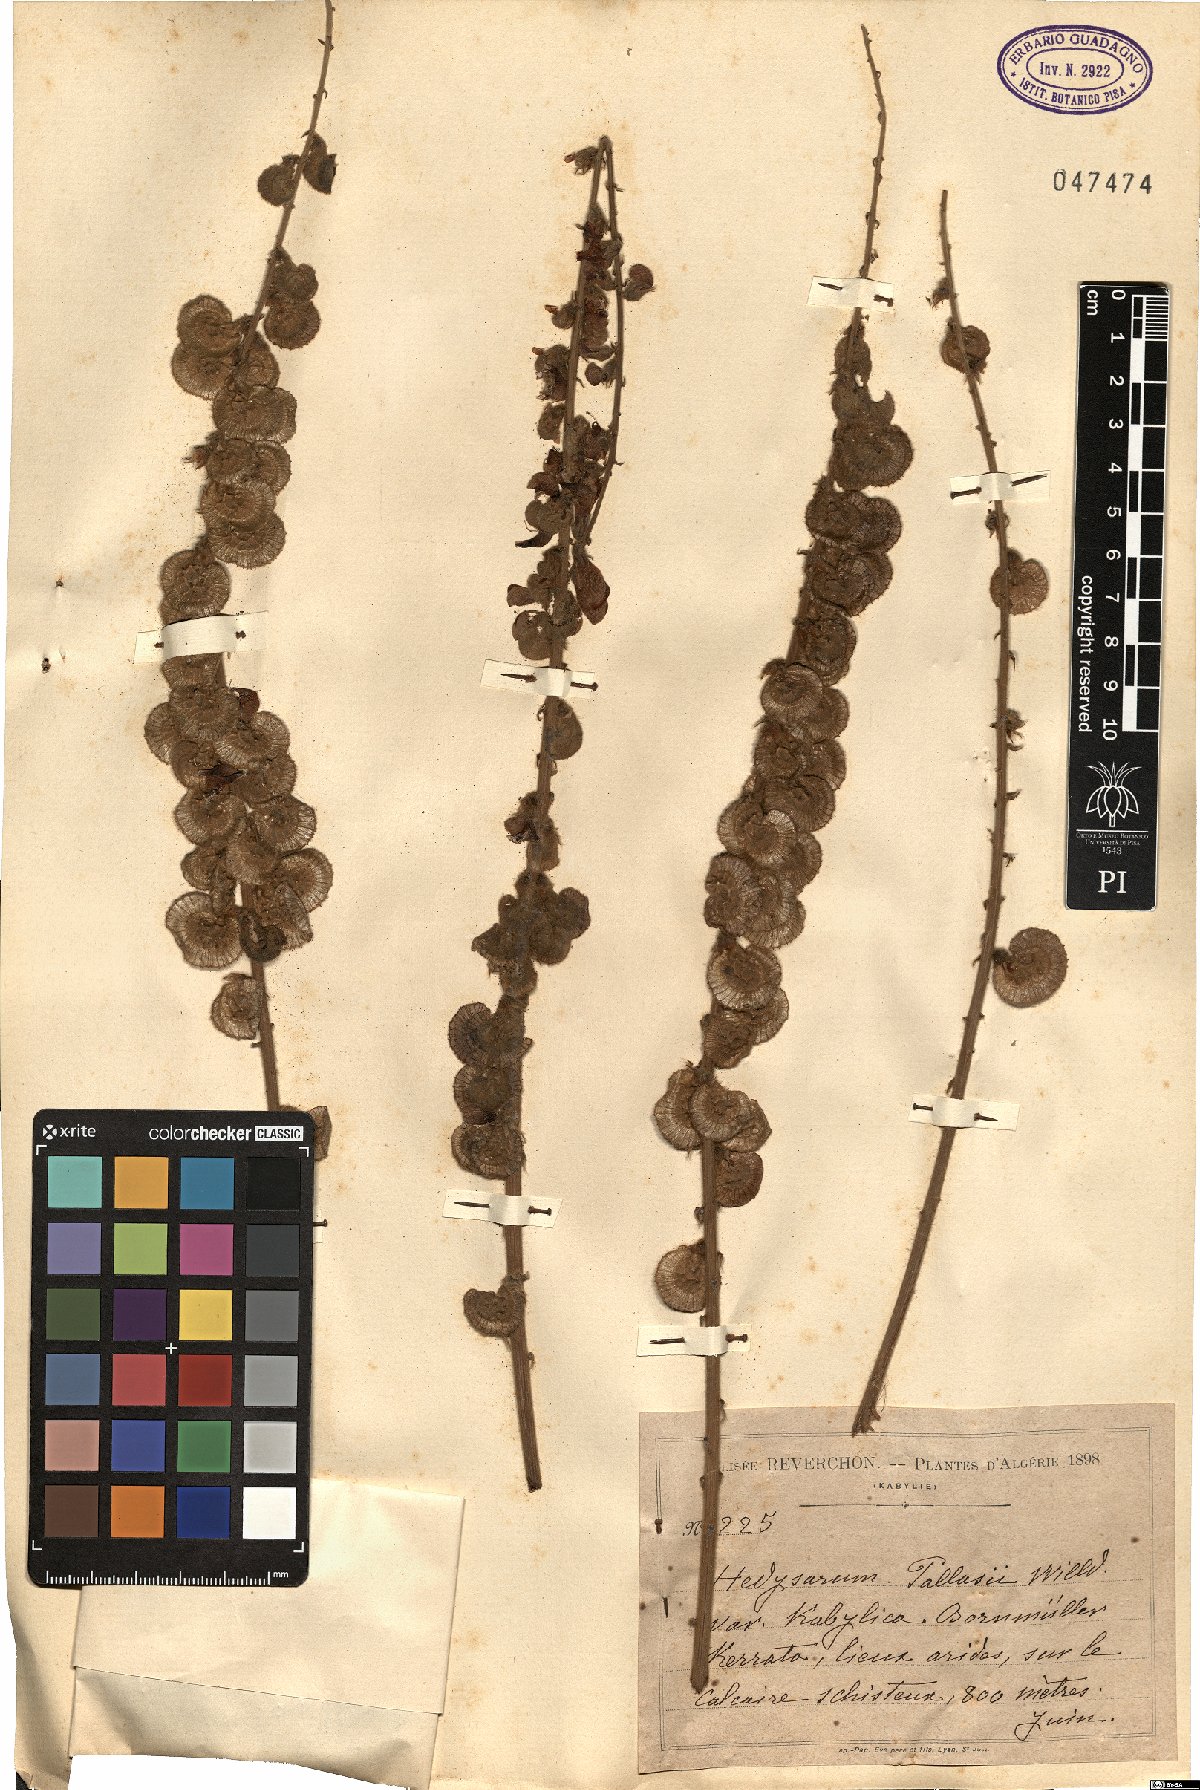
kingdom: Plantae
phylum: Tracheophyta
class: Magnoliopsida
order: Fabales
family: Fabaceae
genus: Onobrychis
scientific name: Onobrychis pallasii
